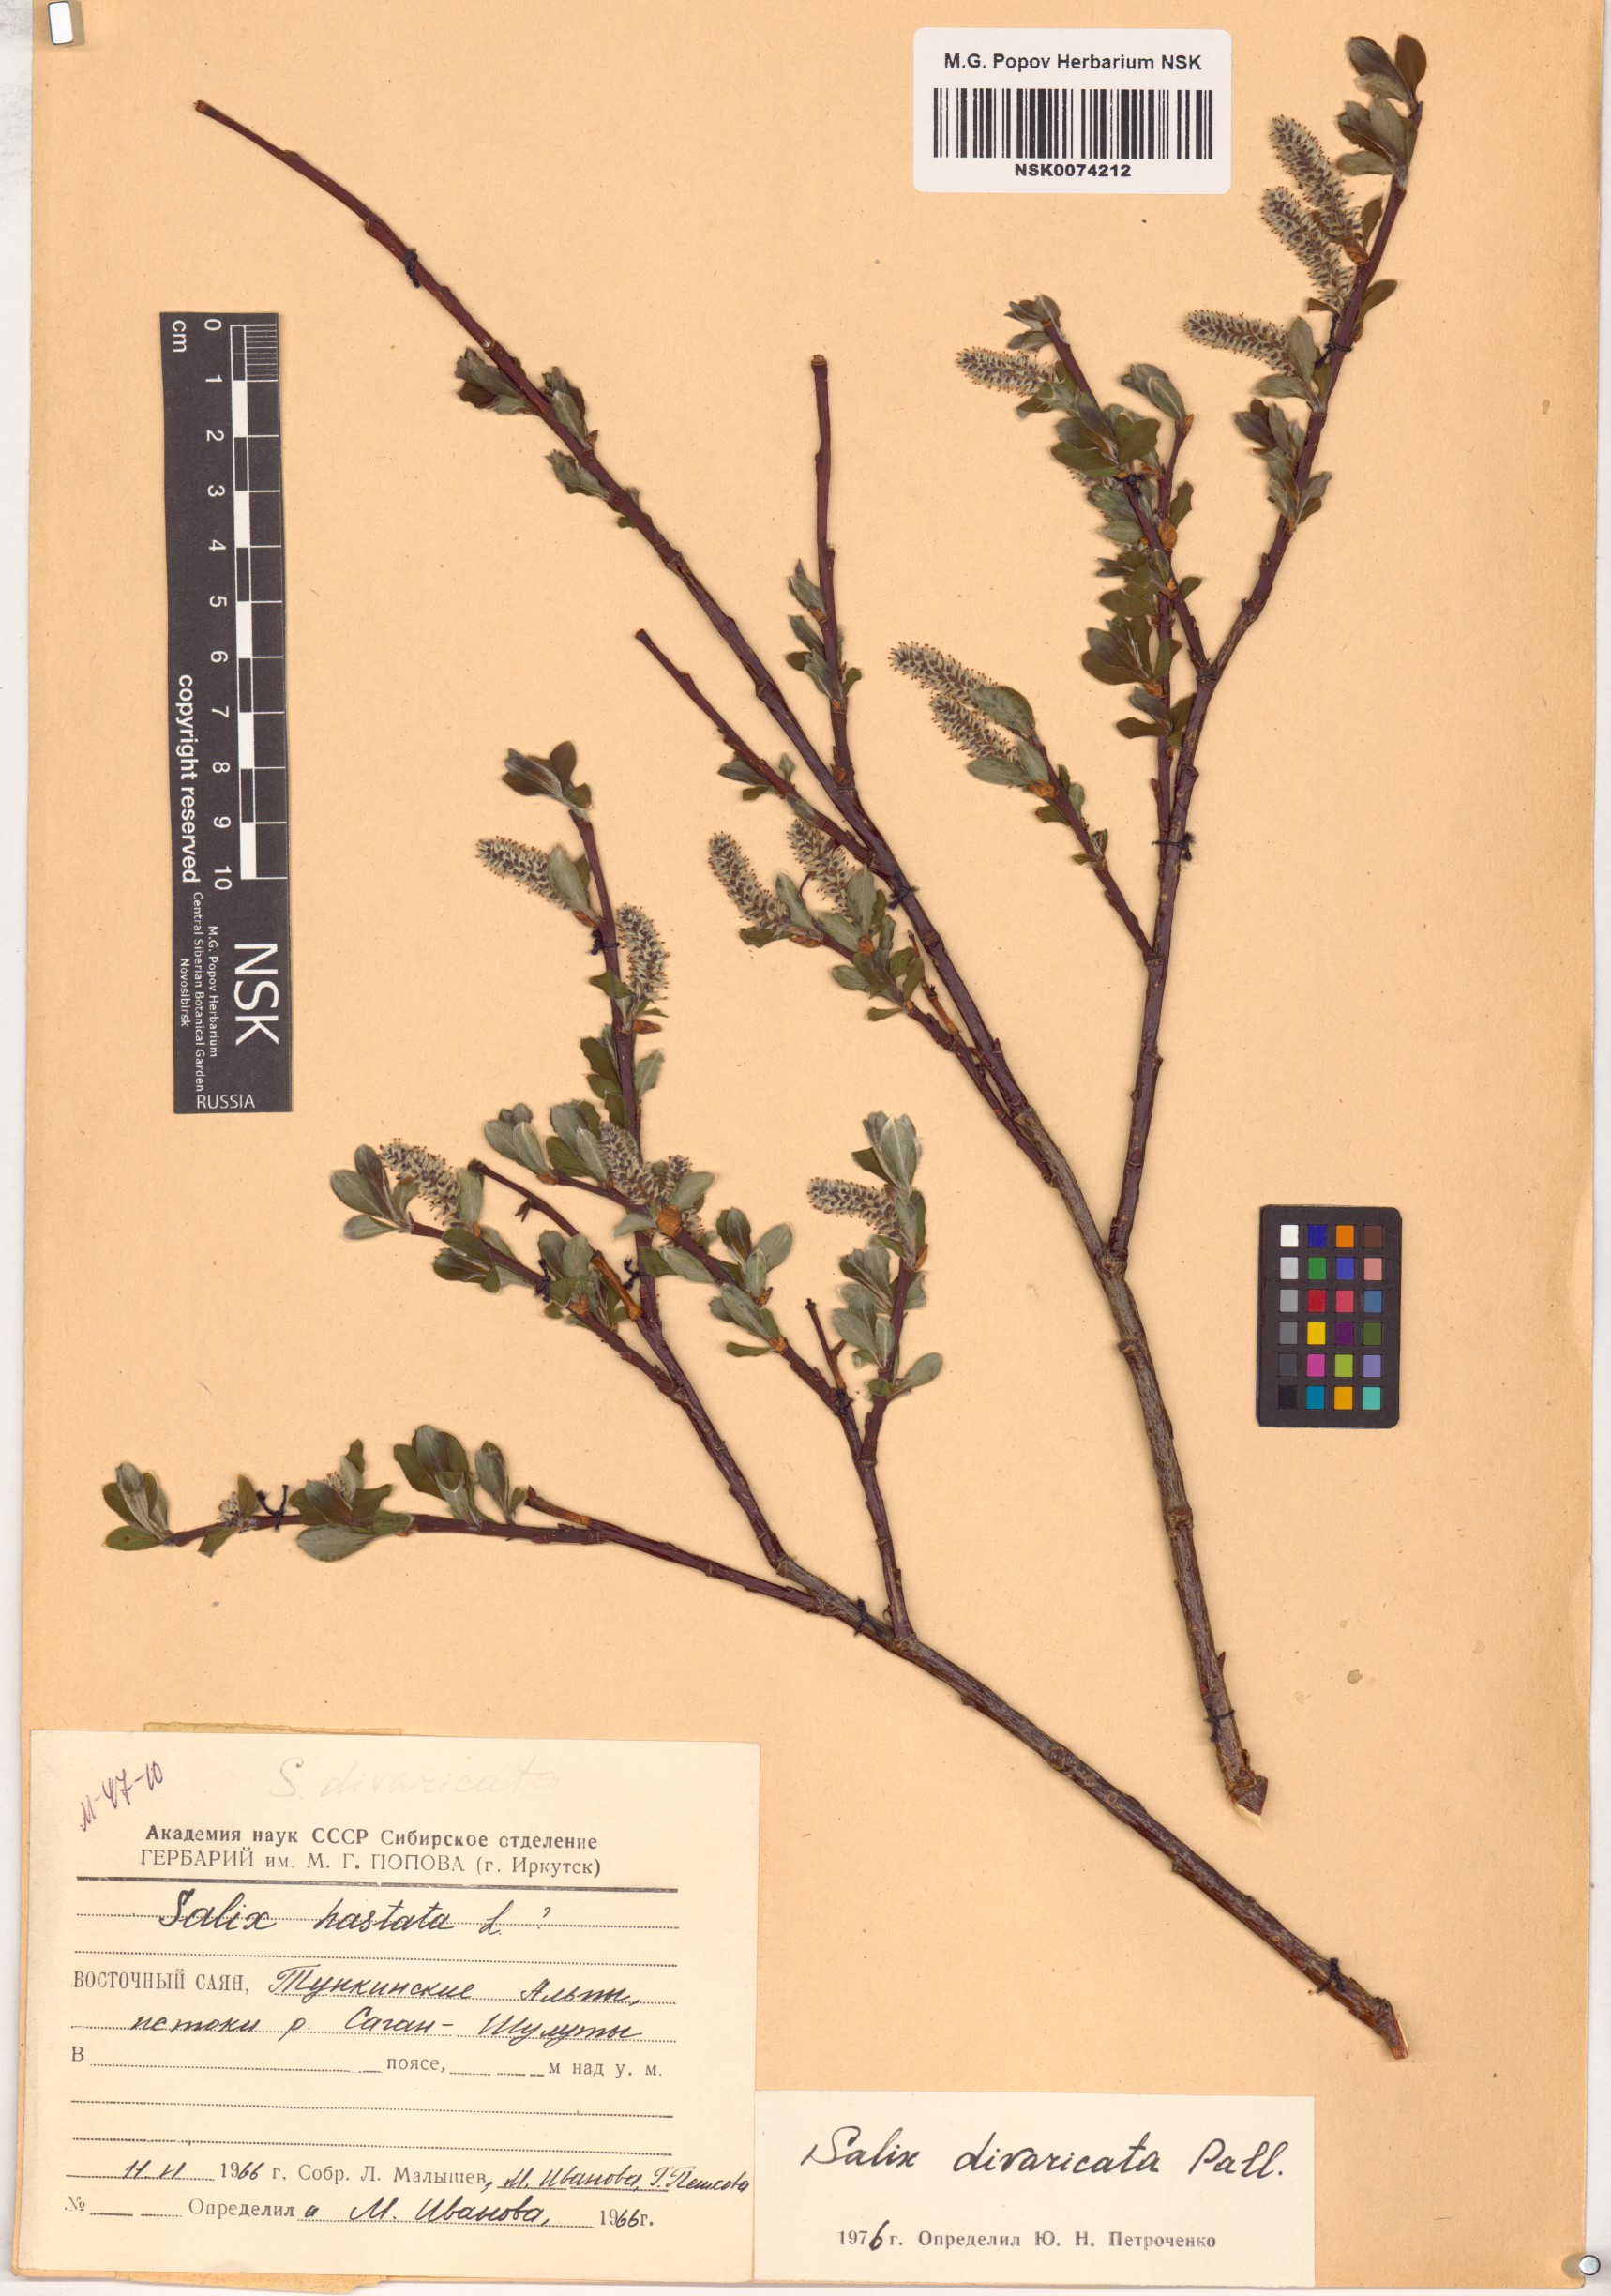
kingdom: Plantae
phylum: Tracheophyta
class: Magnoliopsida
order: Malpighiales
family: Salicaceae
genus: Salix
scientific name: Salix divaricata
